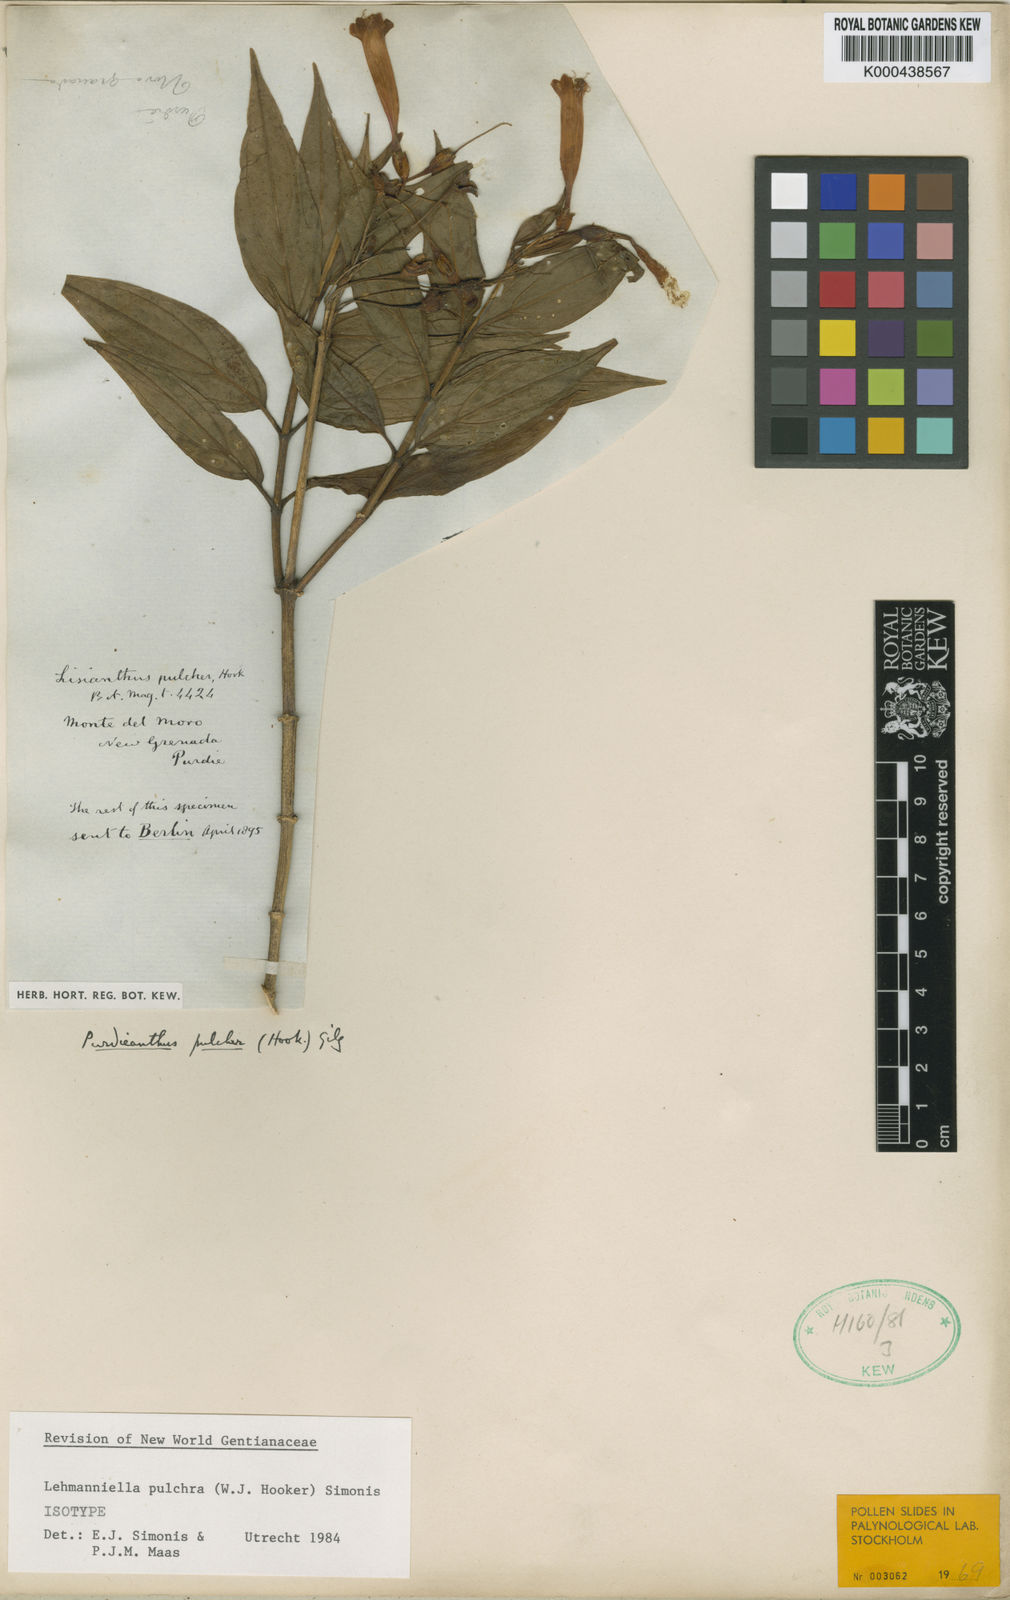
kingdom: Plantae
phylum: Tracheophyta
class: Magnoliopsida
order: Gentianales
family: Gentianaceae
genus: Lehmanniella
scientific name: Lehmanniella
